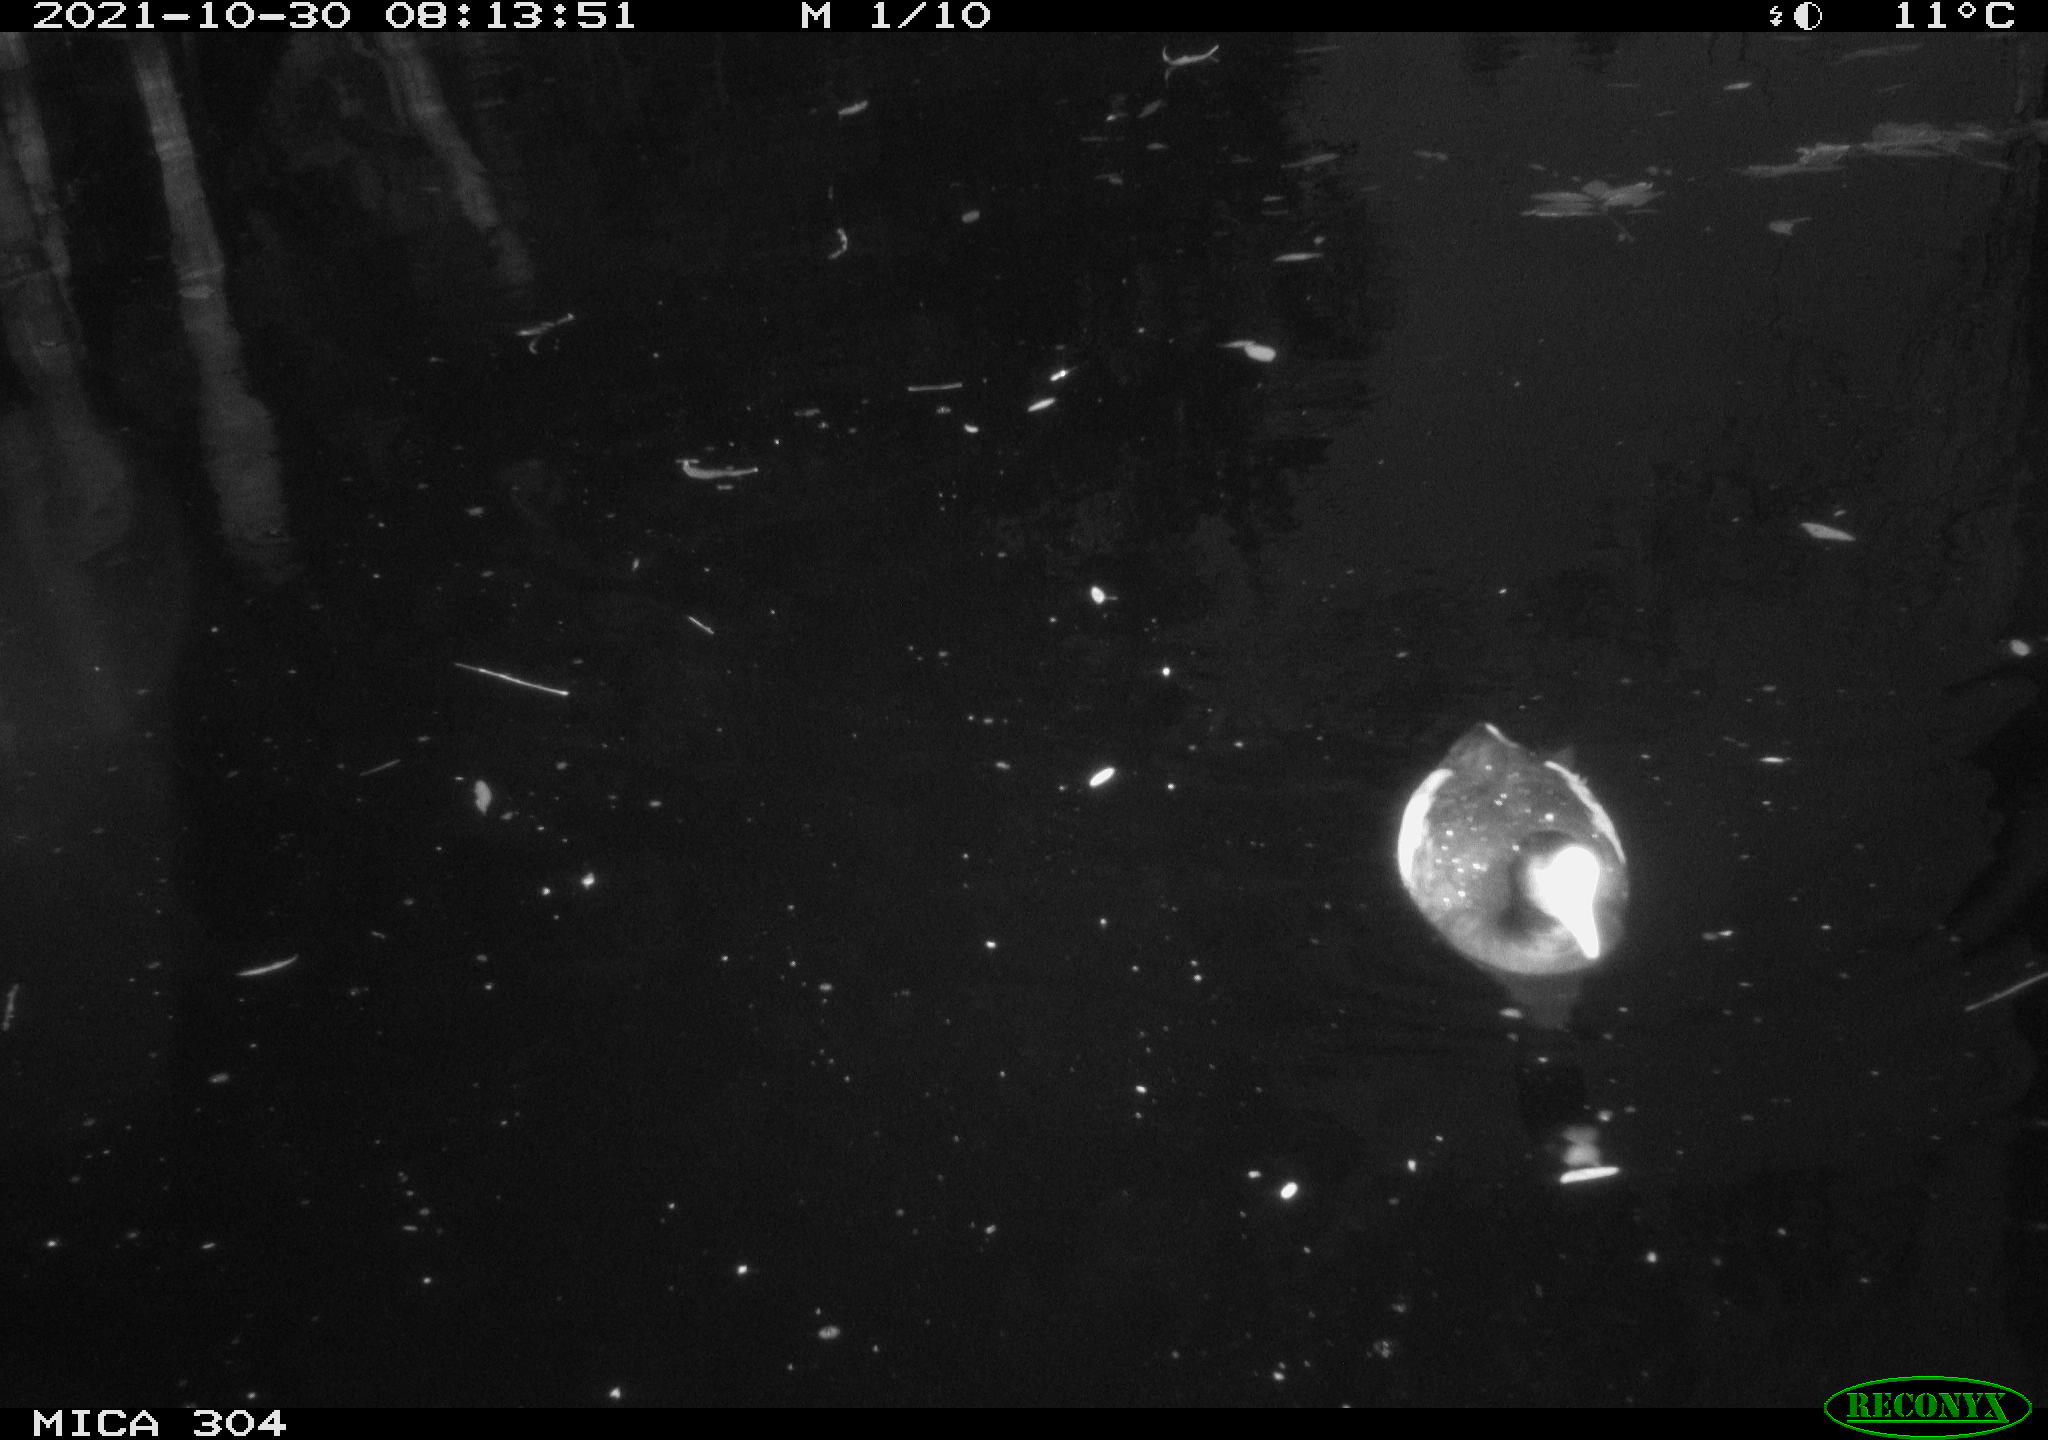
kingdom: Animalia
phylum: Chordata
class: Aves
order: Gruiformes
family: Rallidae
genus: Gallinula
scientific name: Gallinula chloropus
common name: Common moorhen
